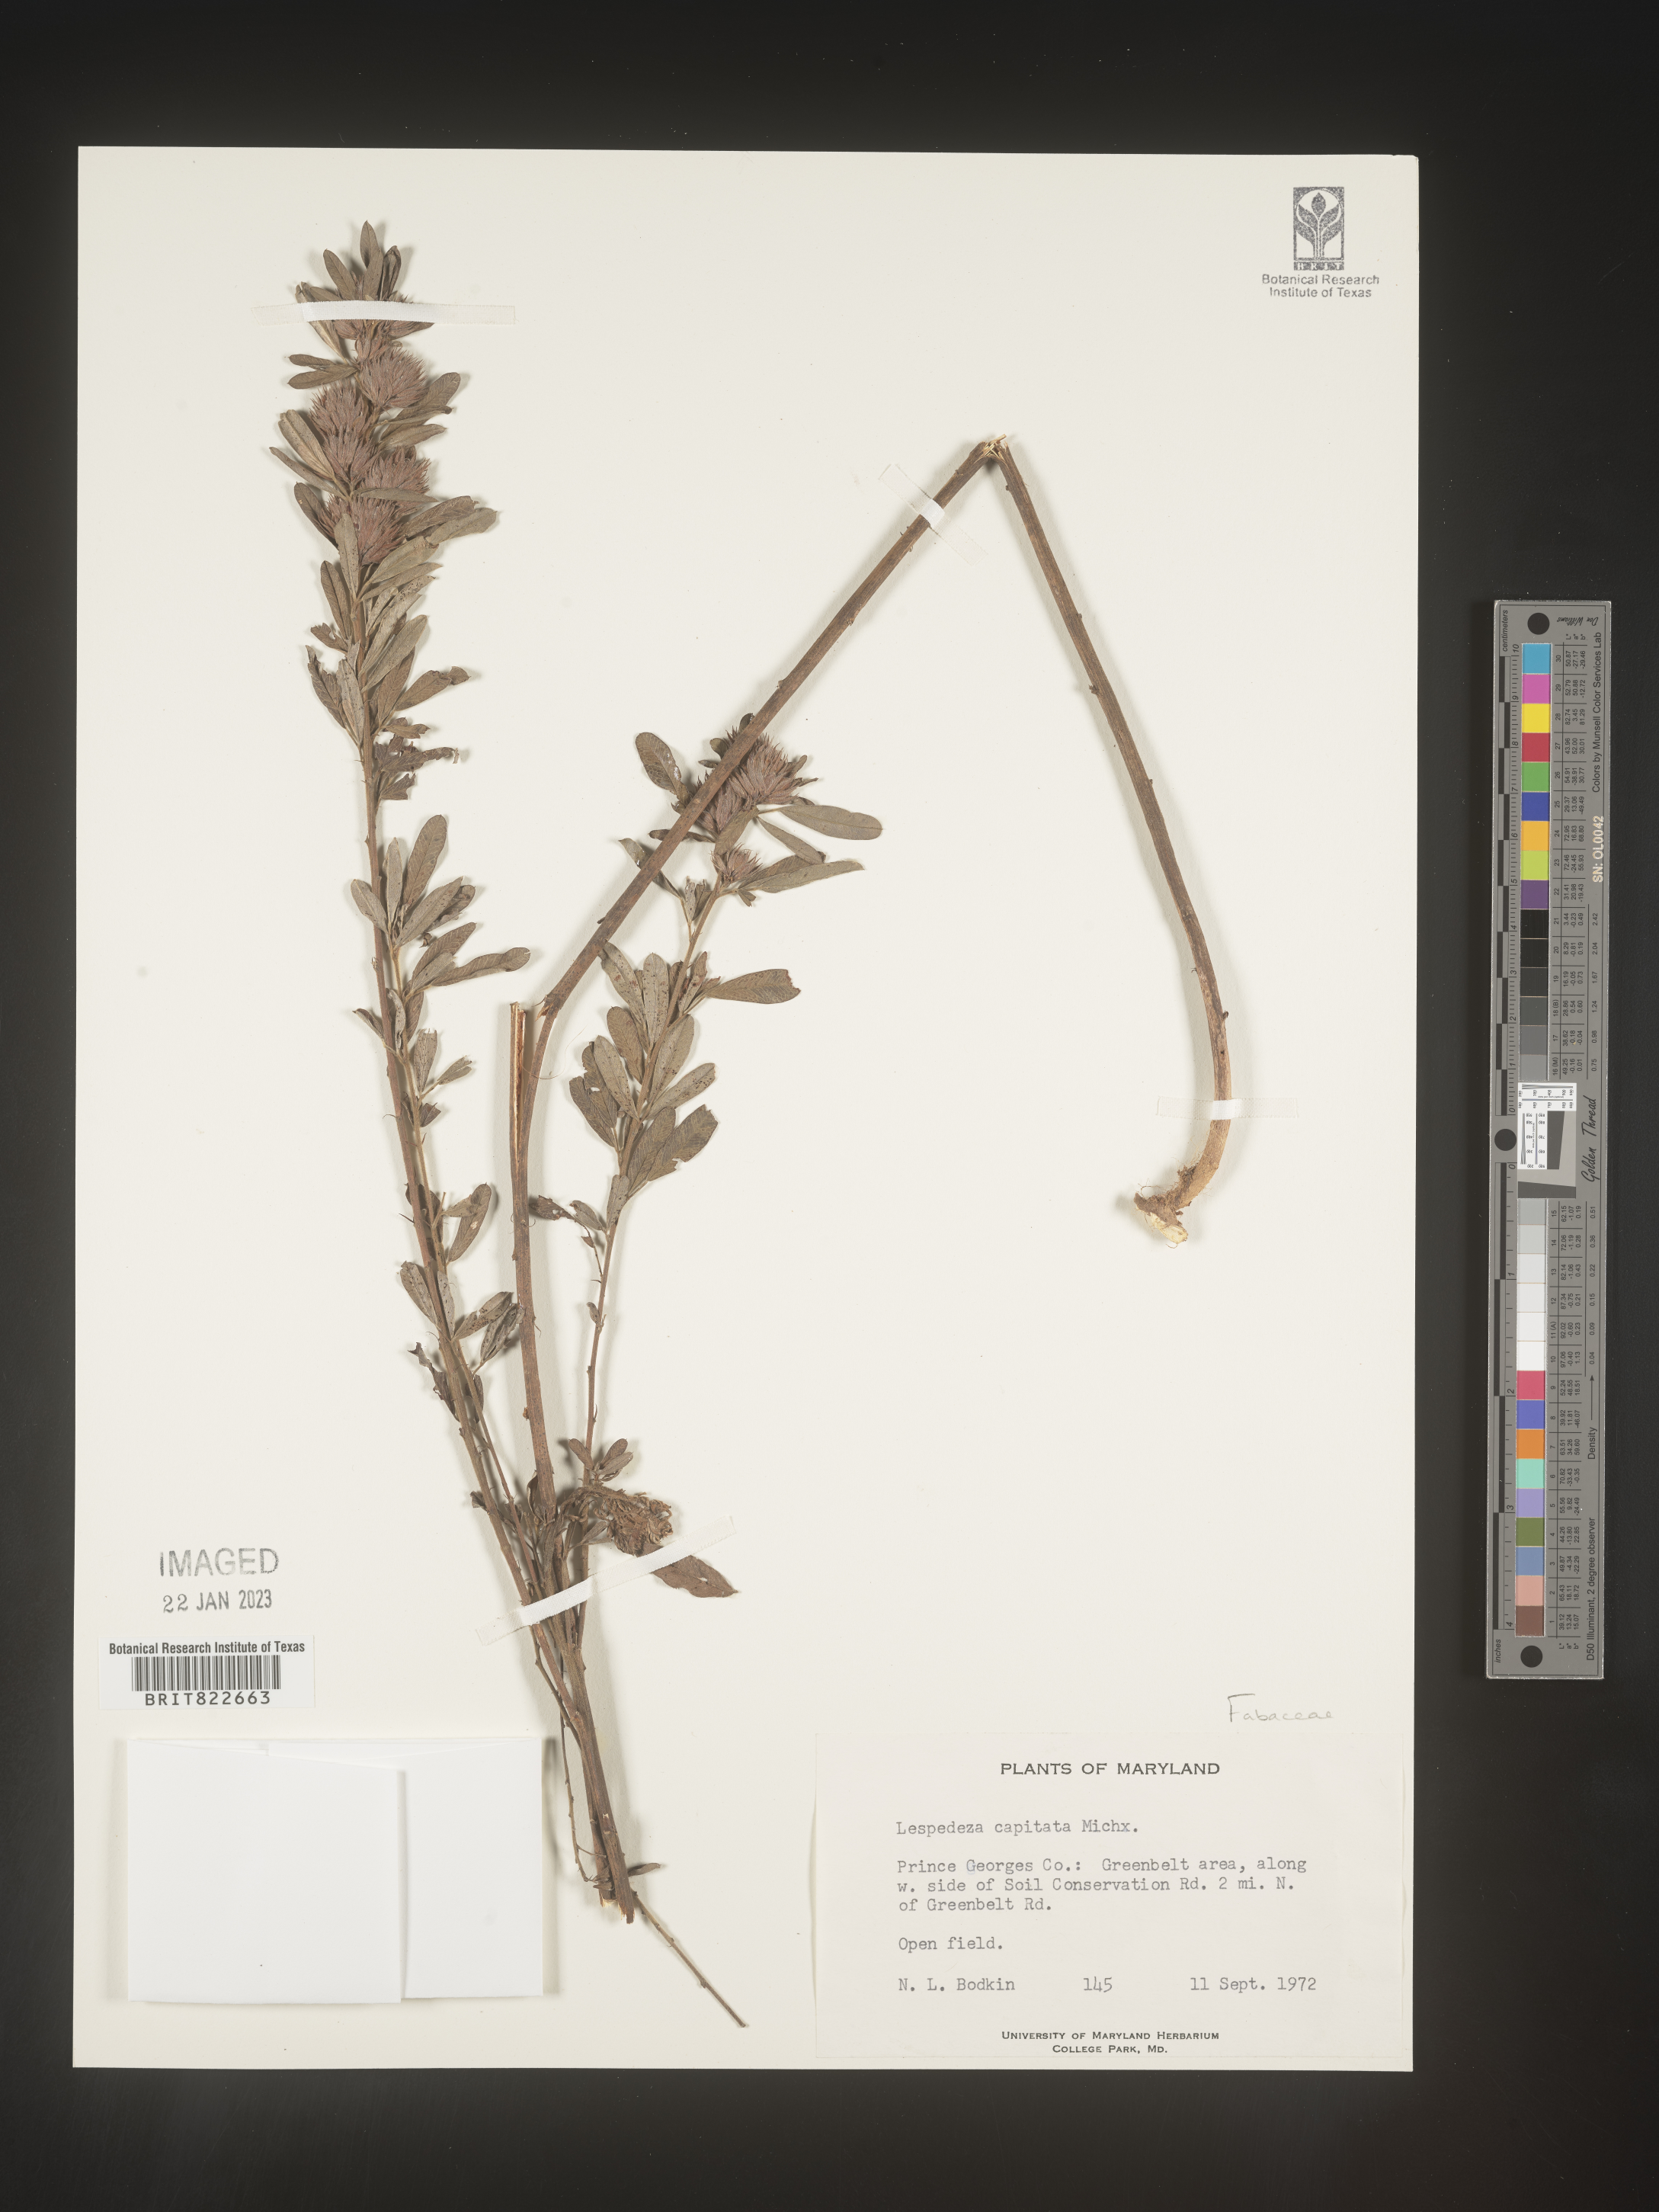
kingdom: Plantae
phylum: Tracheophyta
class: Magnoliopsida
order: Fabales
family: Fabaceae
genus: Lespedeza
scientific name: Lespedeza capitata
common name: Dusty clover
